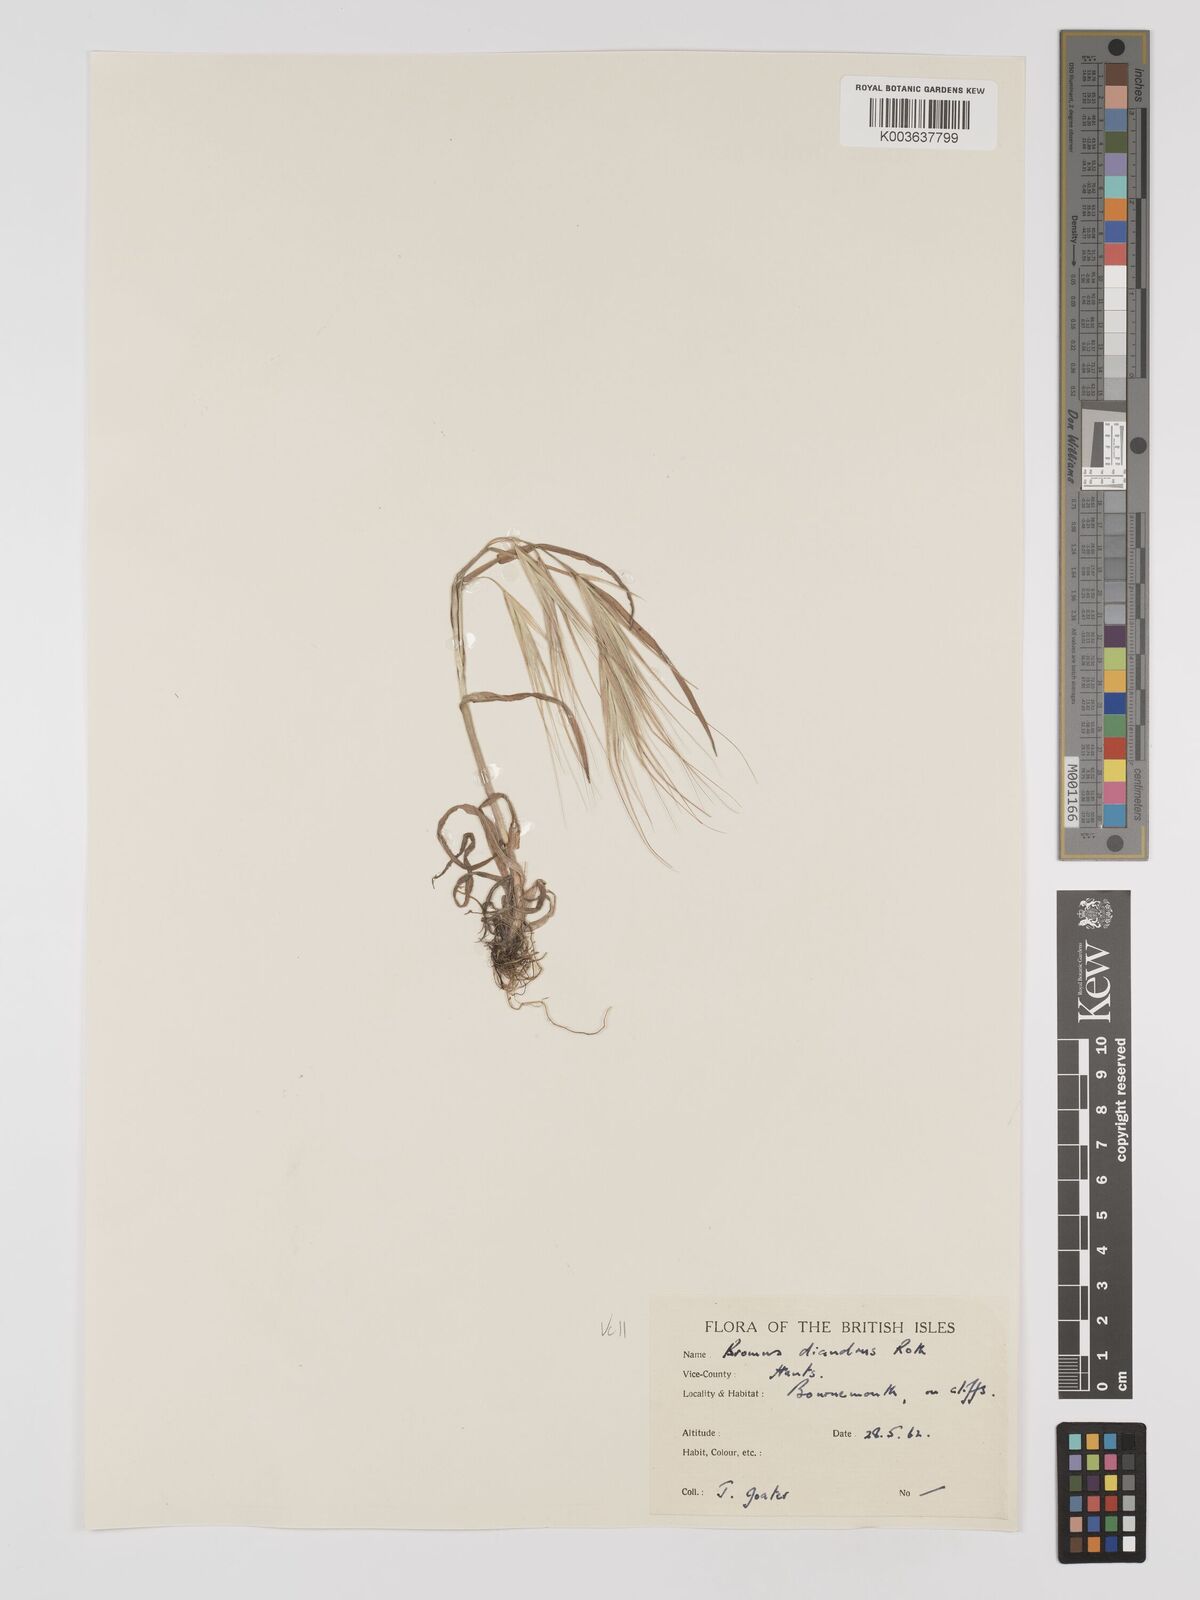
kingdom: Plantae
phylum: Tracheophyta
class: Liliopsida
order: Poales
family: Poaceae
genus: Bromus
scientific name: Bromus
